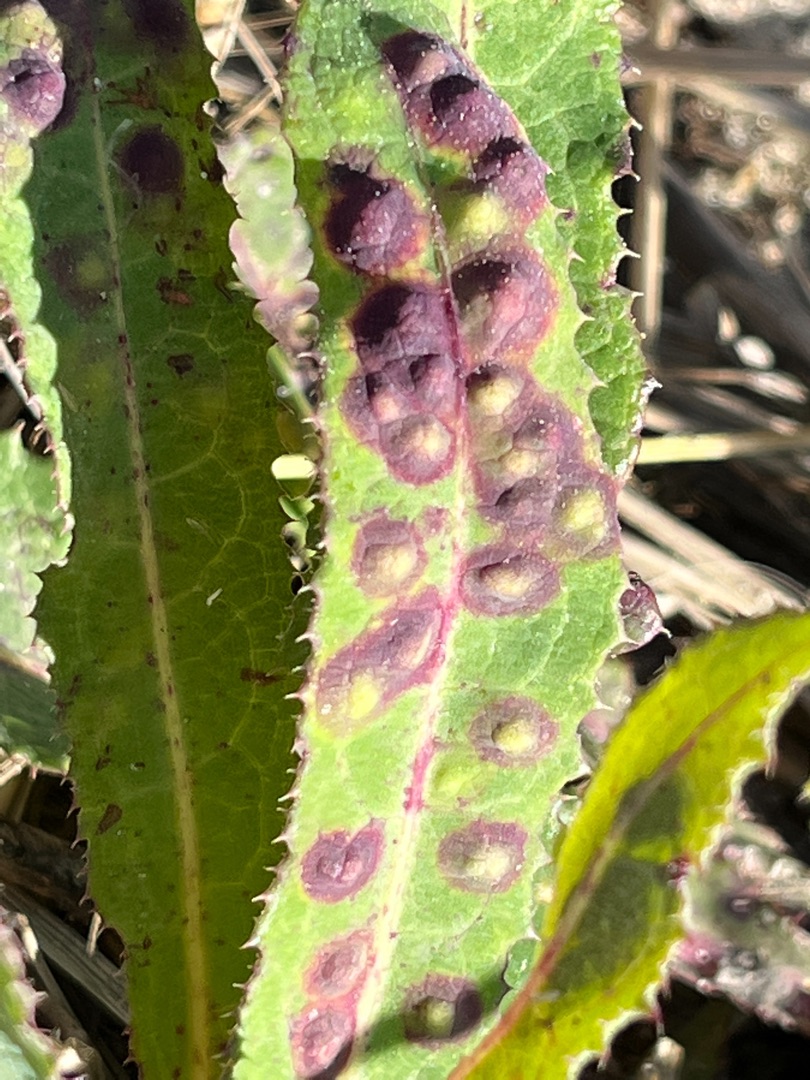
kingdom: Animalia
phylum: Arthropoda
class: Insecta
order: Diptera
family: Cecidomyiidae
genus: Cystiphora
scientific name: Cystiphora sonchi
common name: Svineblæregalmyg
